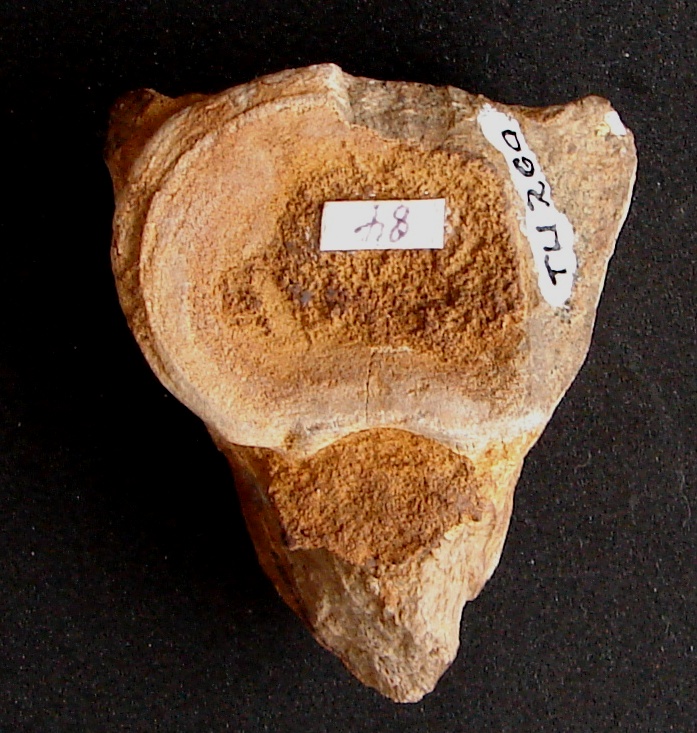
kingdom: Animalia
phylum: Chordata
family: Plesiosauridae
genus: Plesiosaurus
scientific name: Plesiosaurus
